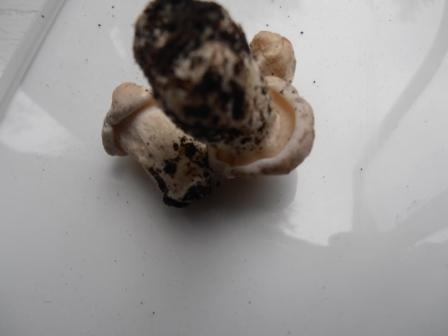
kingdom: Fungi
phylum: Basidiomycota
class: Agaricomycetes
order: Agaricales
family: Lyophyllaceae
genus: Calocybe
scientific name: Calocybe gambosa
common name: vårmusseron
